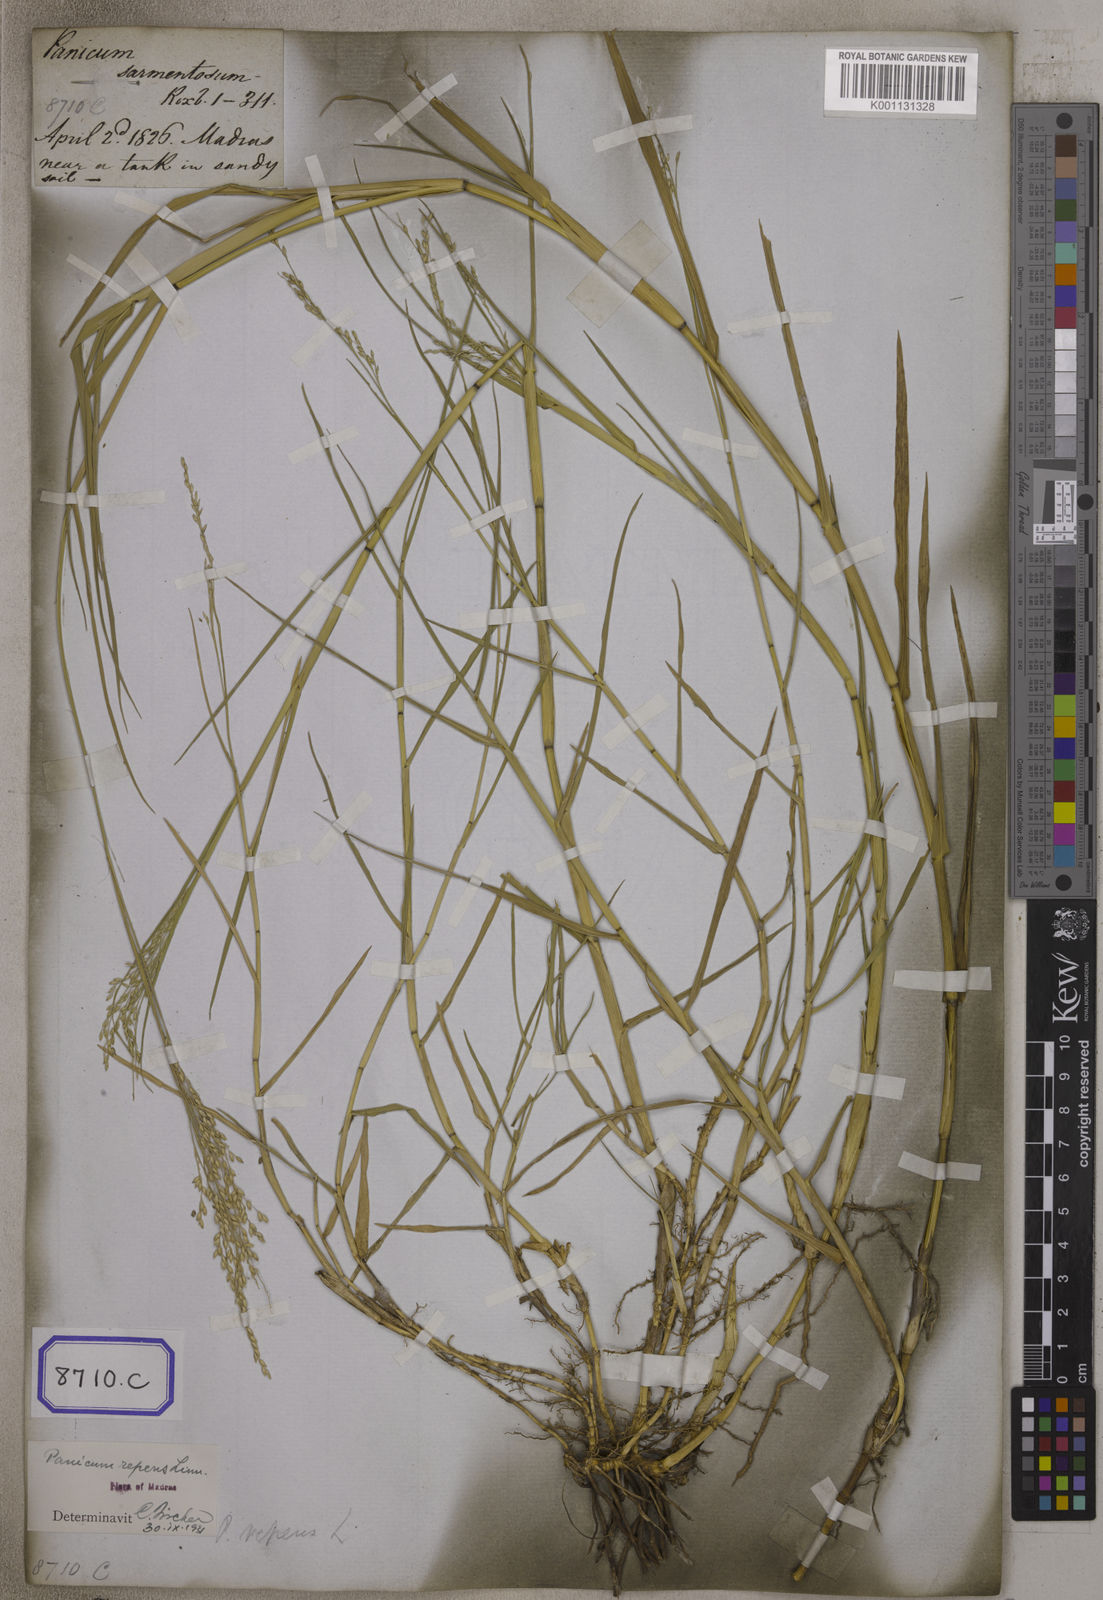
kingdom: Plantae
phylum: Tracheophyta
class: Liliopsida
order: Poales
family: Poaceae
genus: Panicum
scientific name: Panicum repens
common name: Torpedo grass
